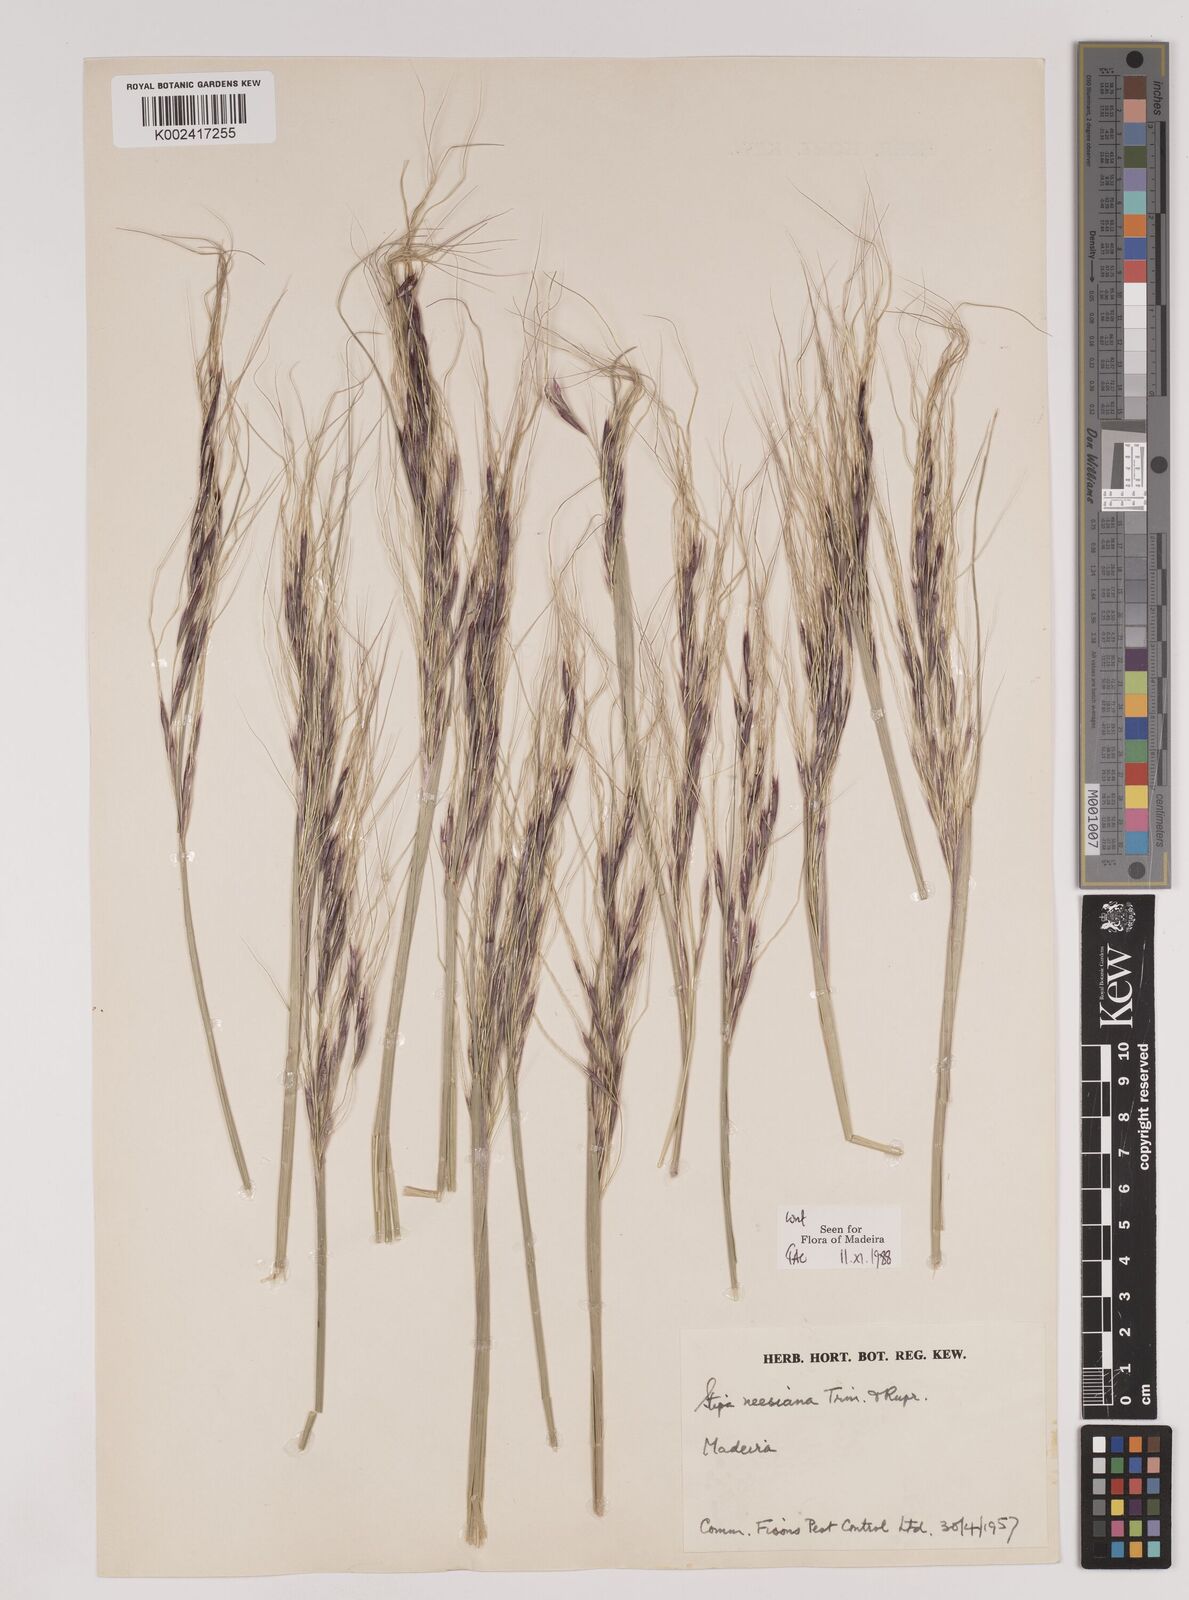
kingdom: Plantae
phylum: Tracheophyta
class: Liliopsida
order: Poales
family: Poaceae
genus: Nassella
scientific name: Nassella neesiana
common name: American needle-grass
